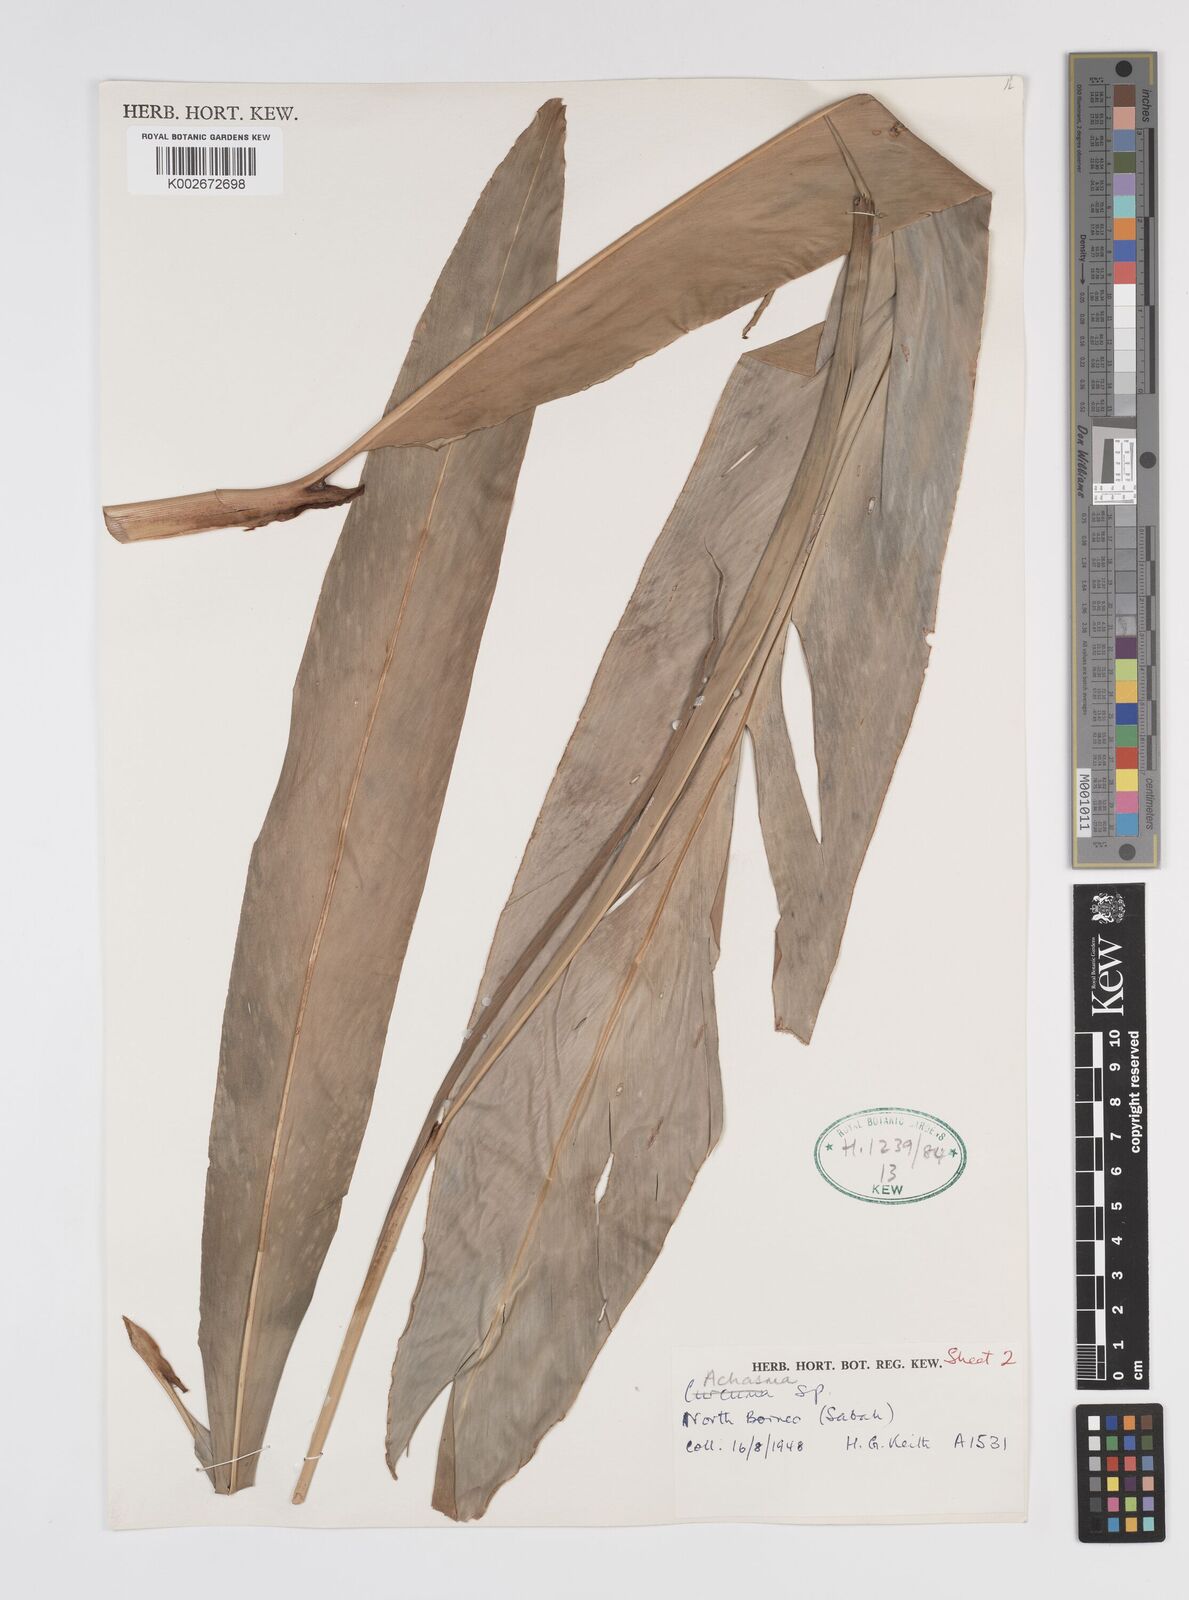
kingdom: Plantae
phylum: Tracheophyta
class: Liliopsida
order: Zingiberales
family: Zingiberaceae
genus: Etlingera
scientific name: Etlingera littoralis
